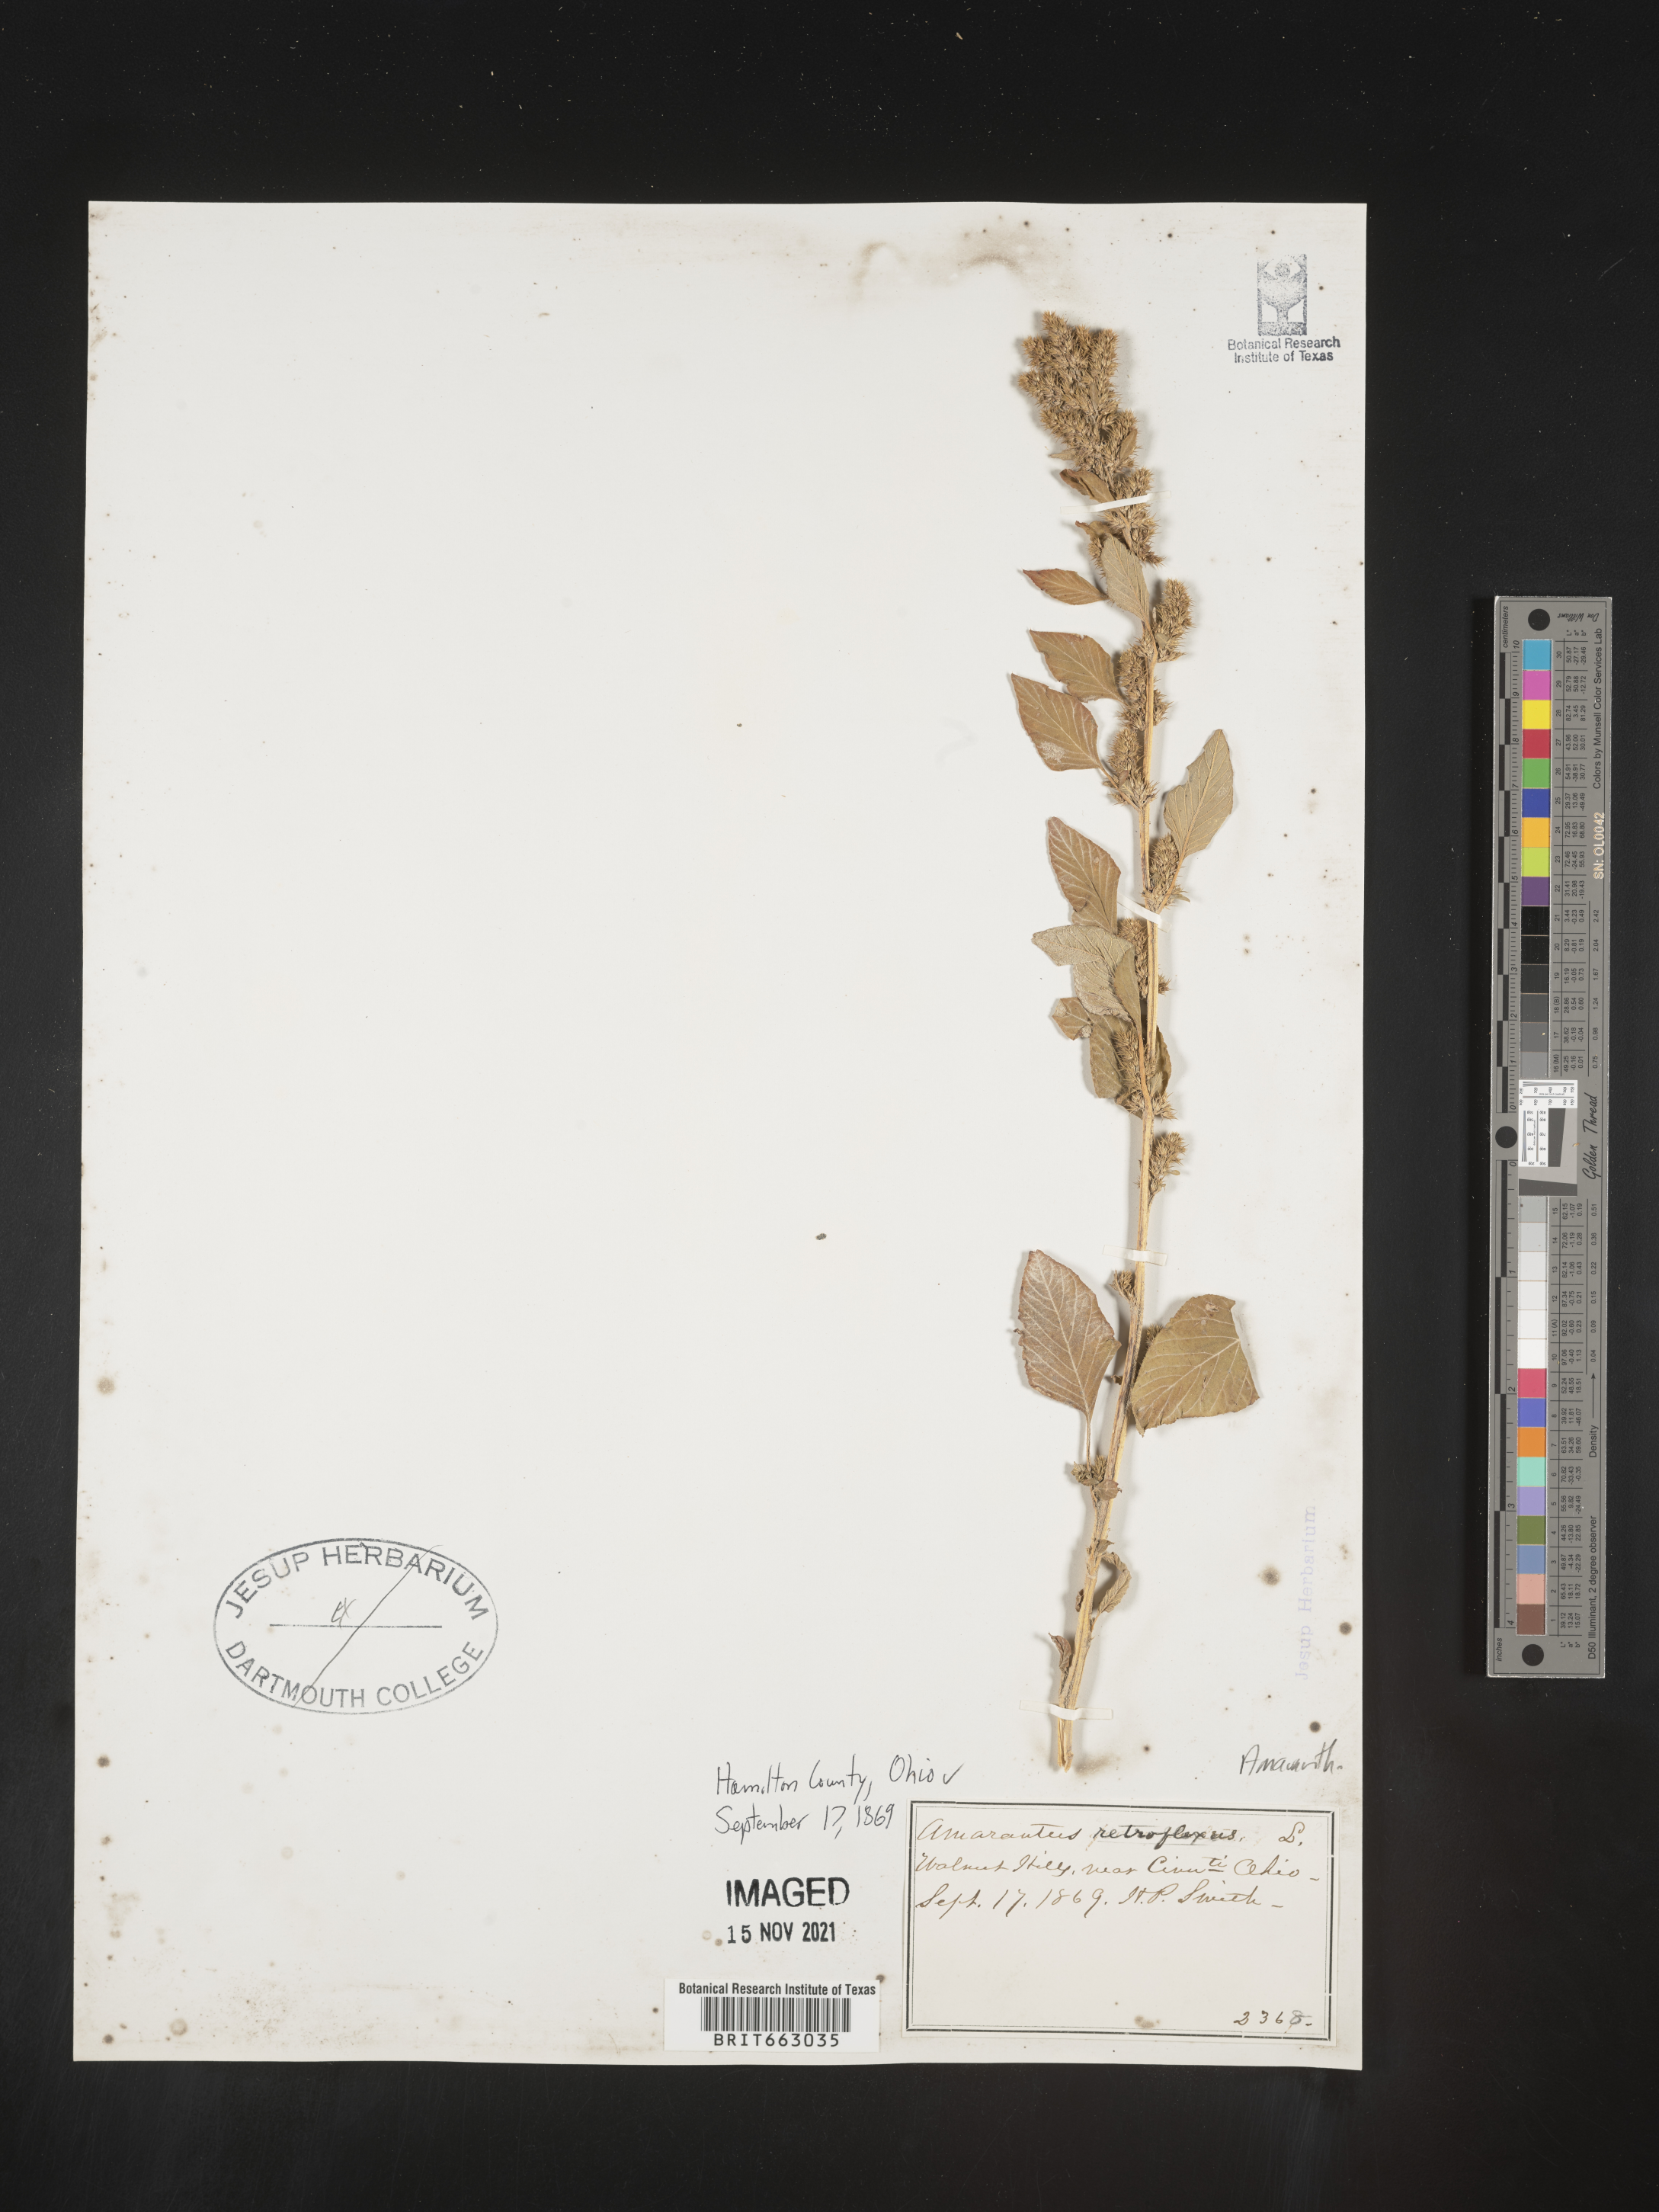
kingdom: Plantae
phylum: Tracheophyta
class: Magnoliopsida
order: Caryophyllales
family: Amaranthaceae
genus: Amaranthus
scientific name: Amaranthus retroflexus
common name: Redroot amaranth
